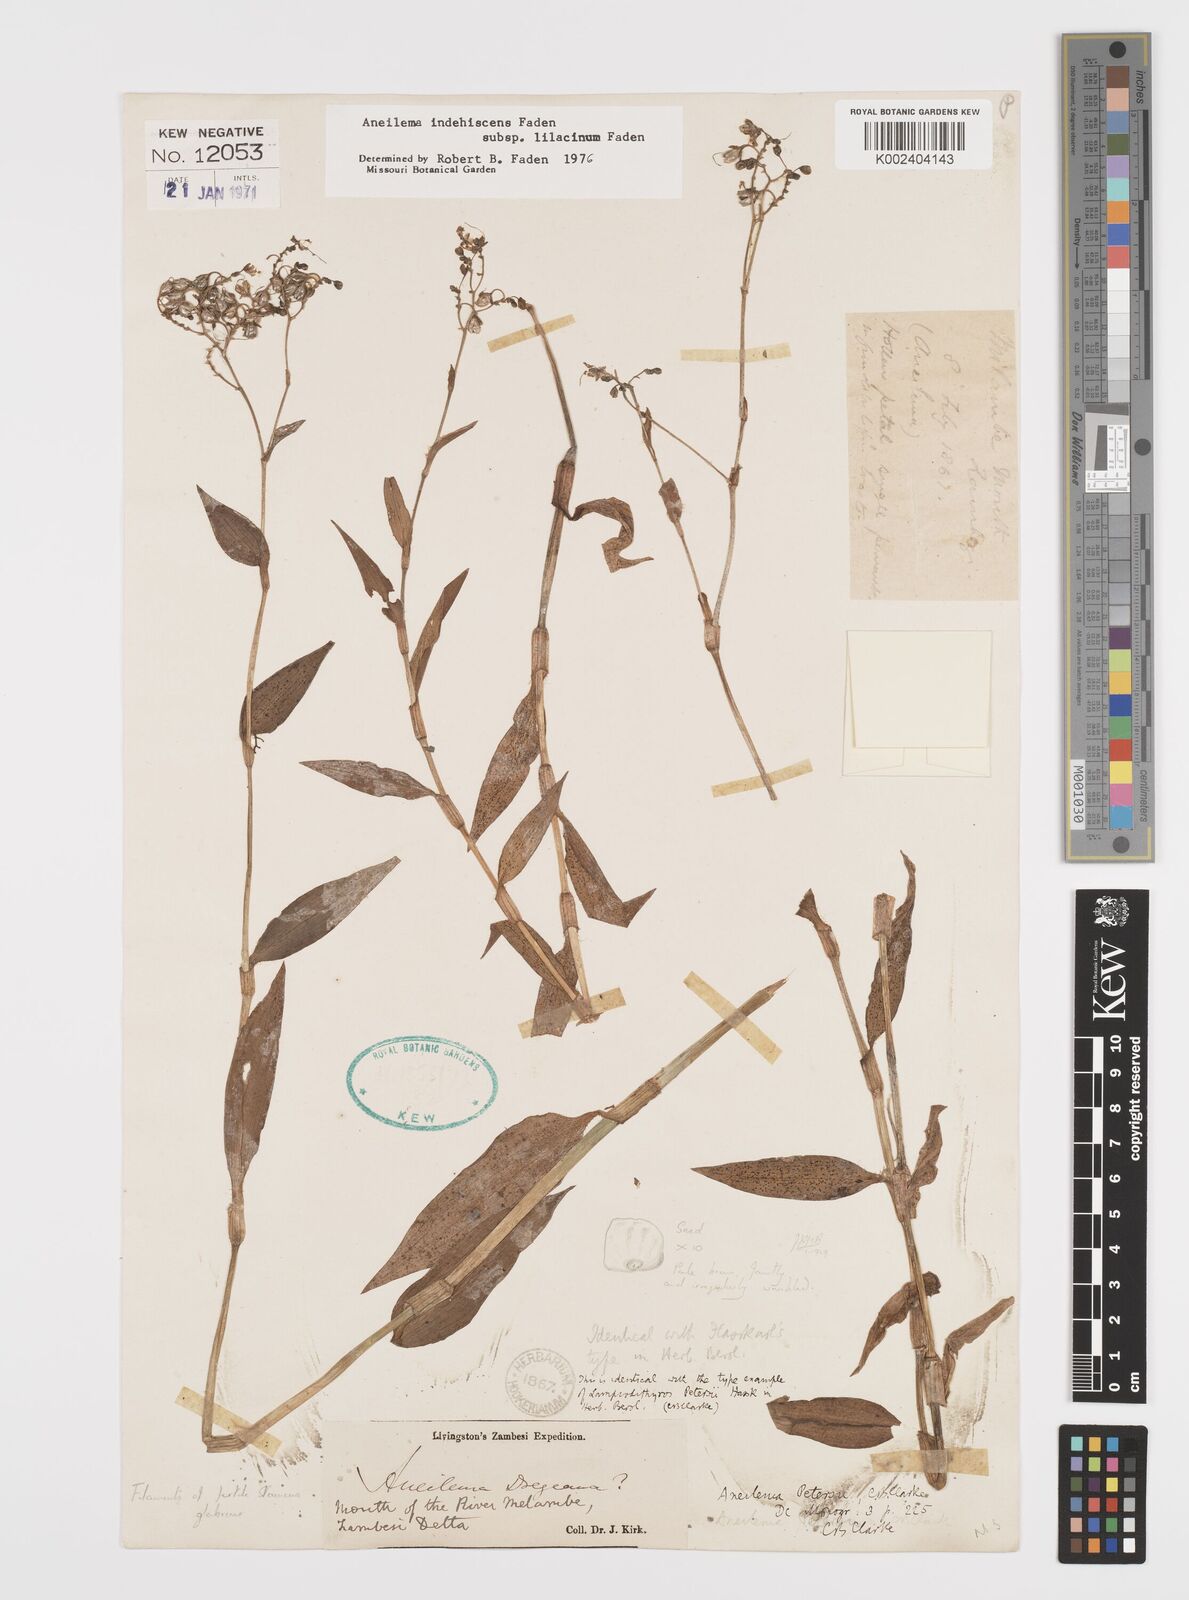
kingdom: Plantae
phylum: Tracheophyta
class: Liliopsida
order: Commelinales
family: Commelinaceae
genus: Aneilema
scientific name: Aneilema indehiscens
